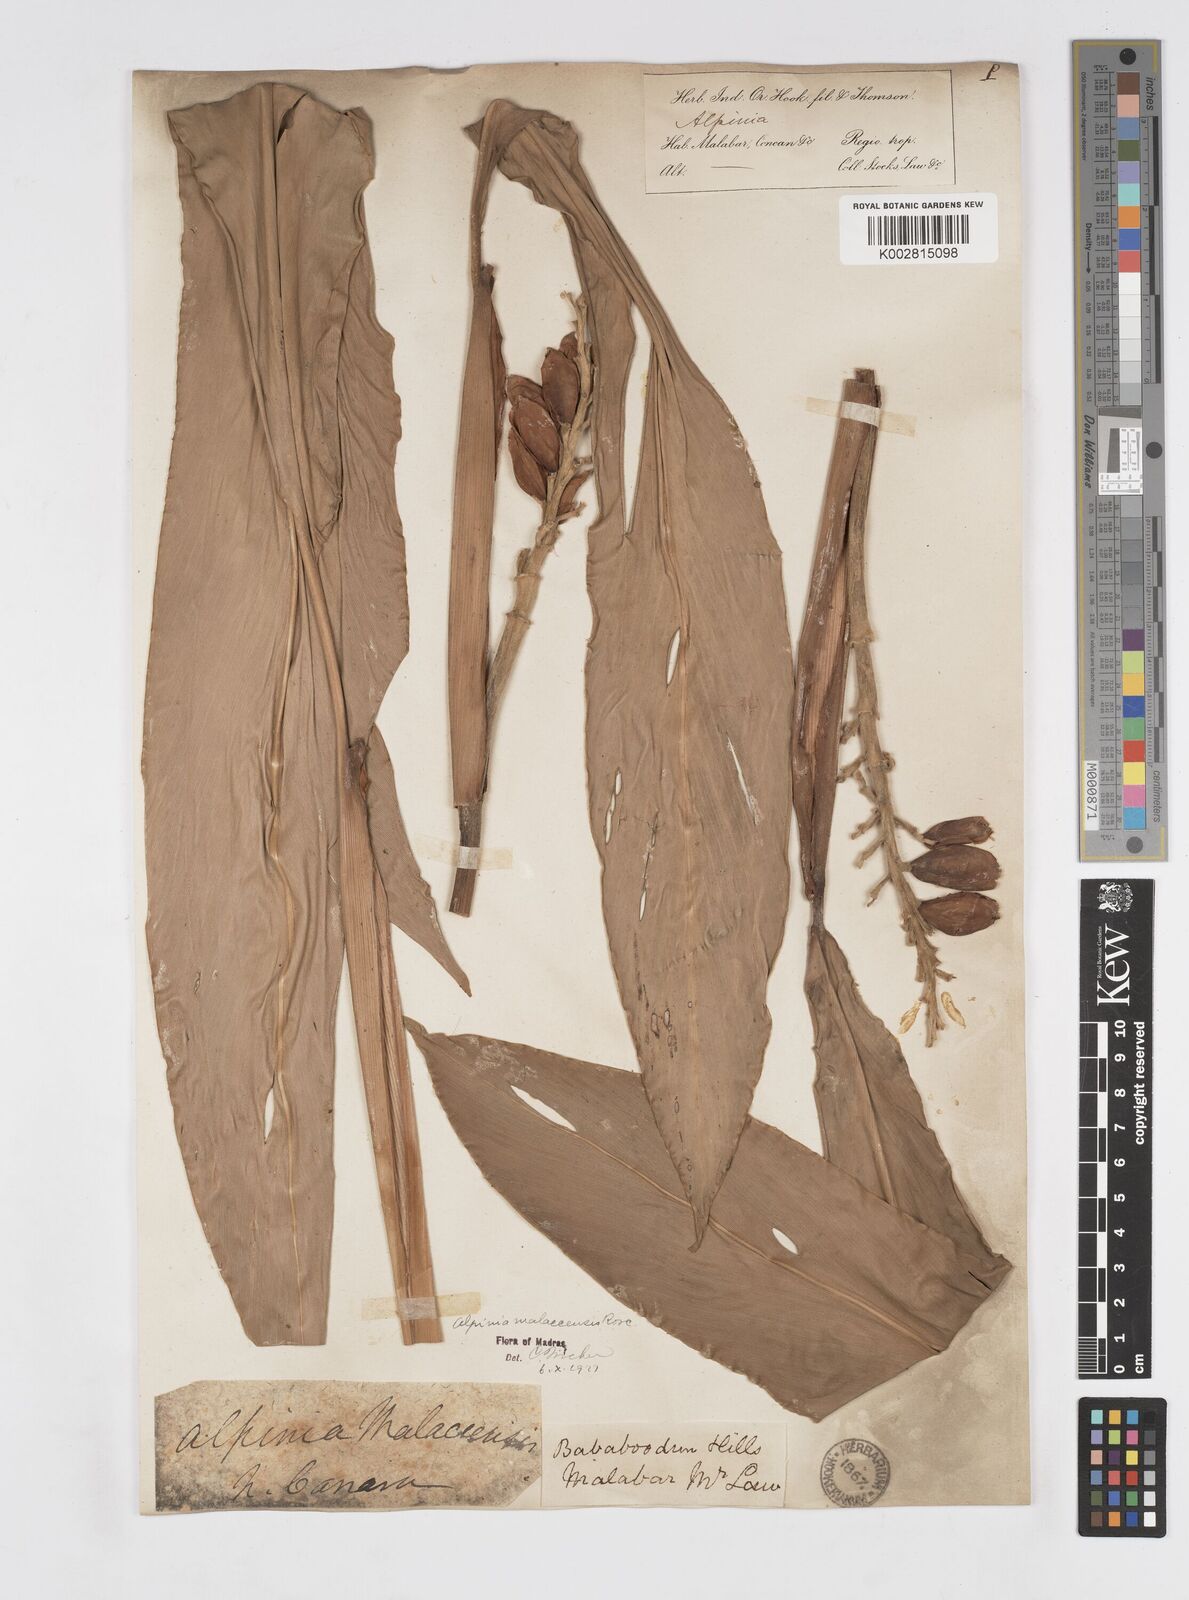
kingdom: Plantae
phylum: Tracheophyta
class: Liliopsida
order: Zingiberales
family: Zingiberaceae
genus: Alpinia
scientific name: Alpinia malaccensis
